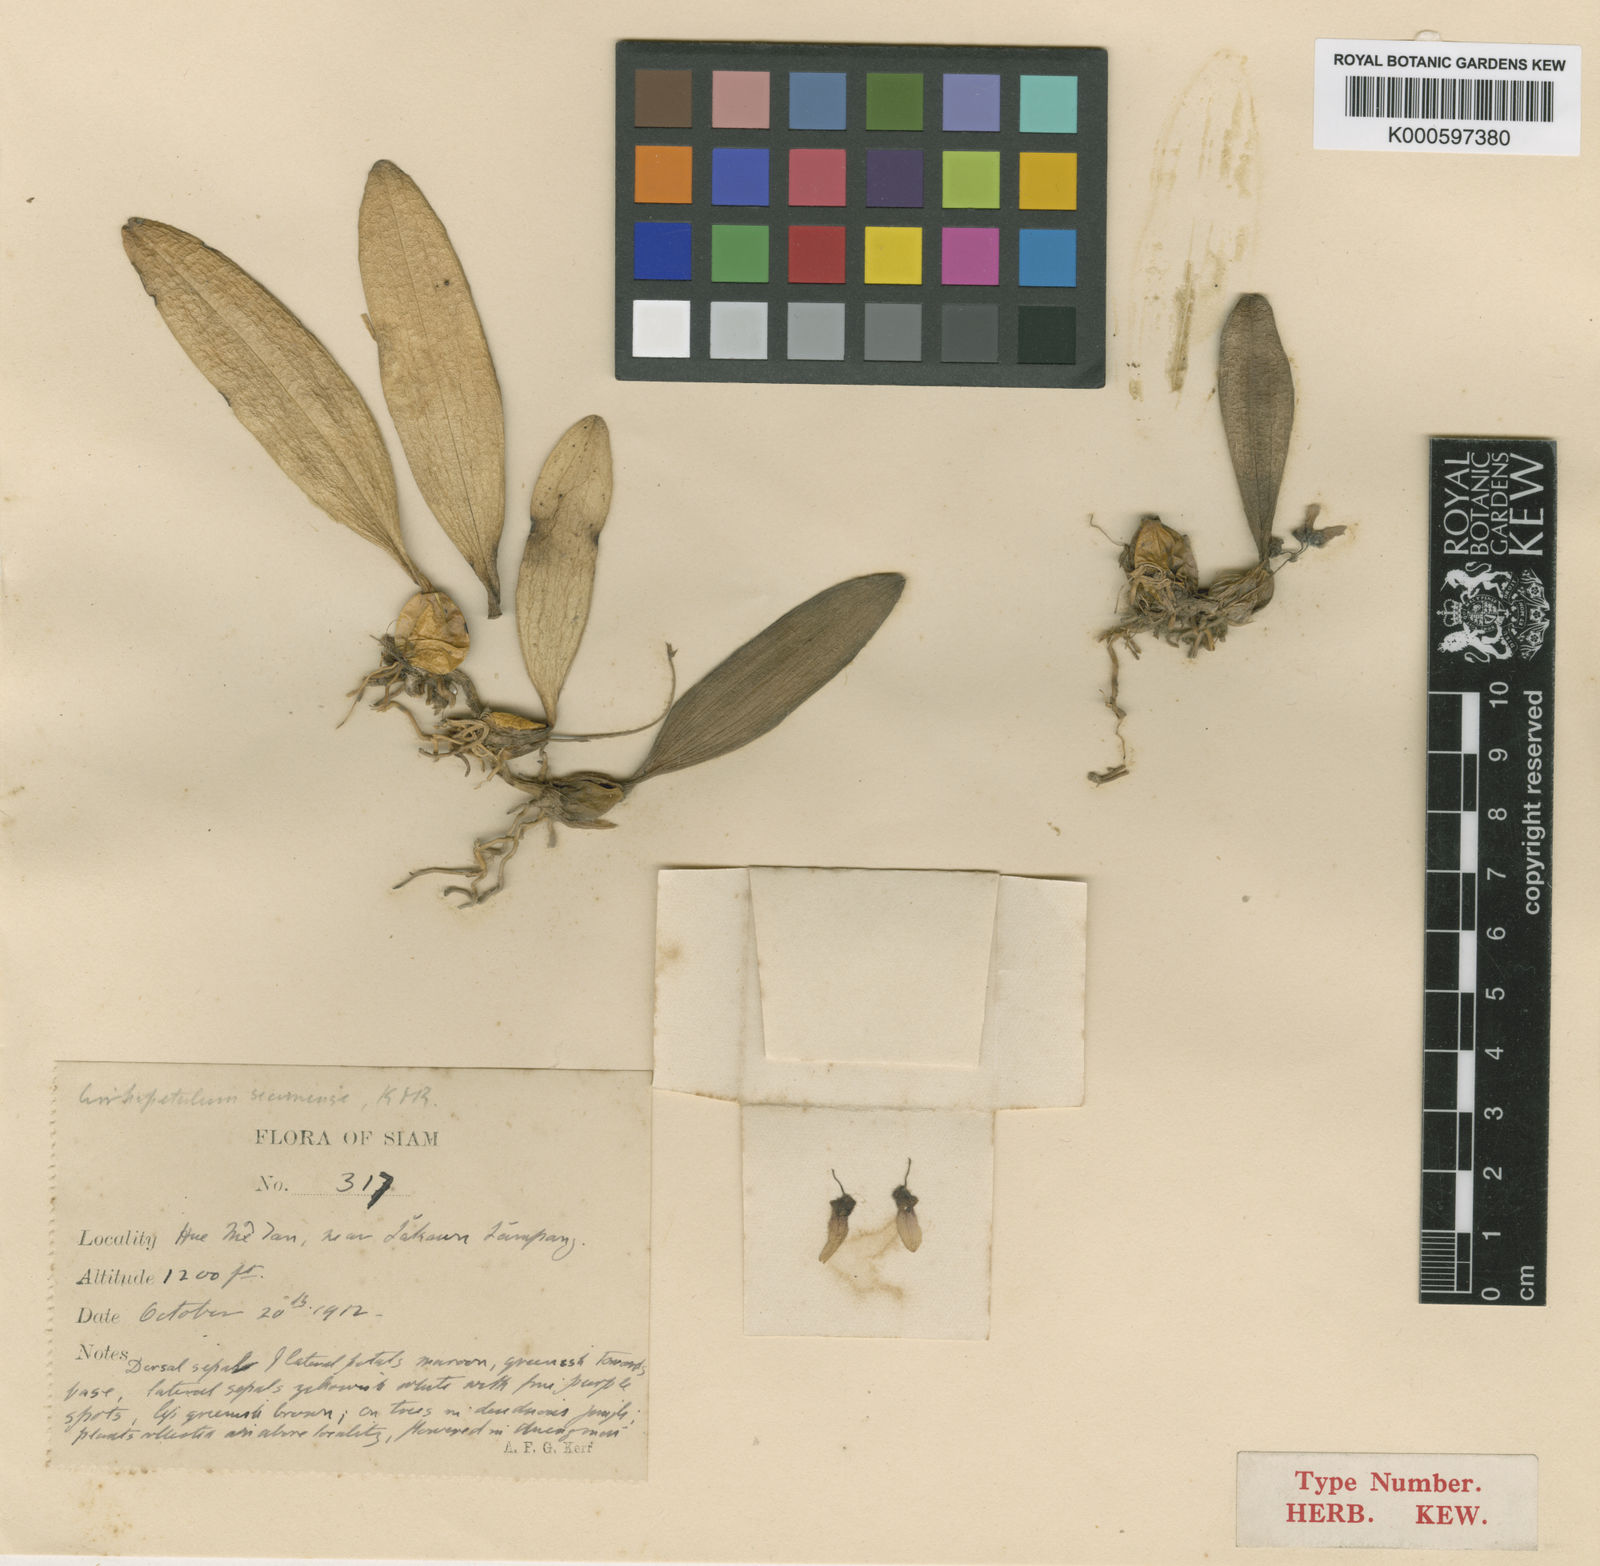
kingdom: Plantae
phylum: Tracheophyta
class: Liliopsida
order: Asparagales
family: Orchidaceae
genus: Bulbophyllum
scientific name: Bulbophyllum lepidum
